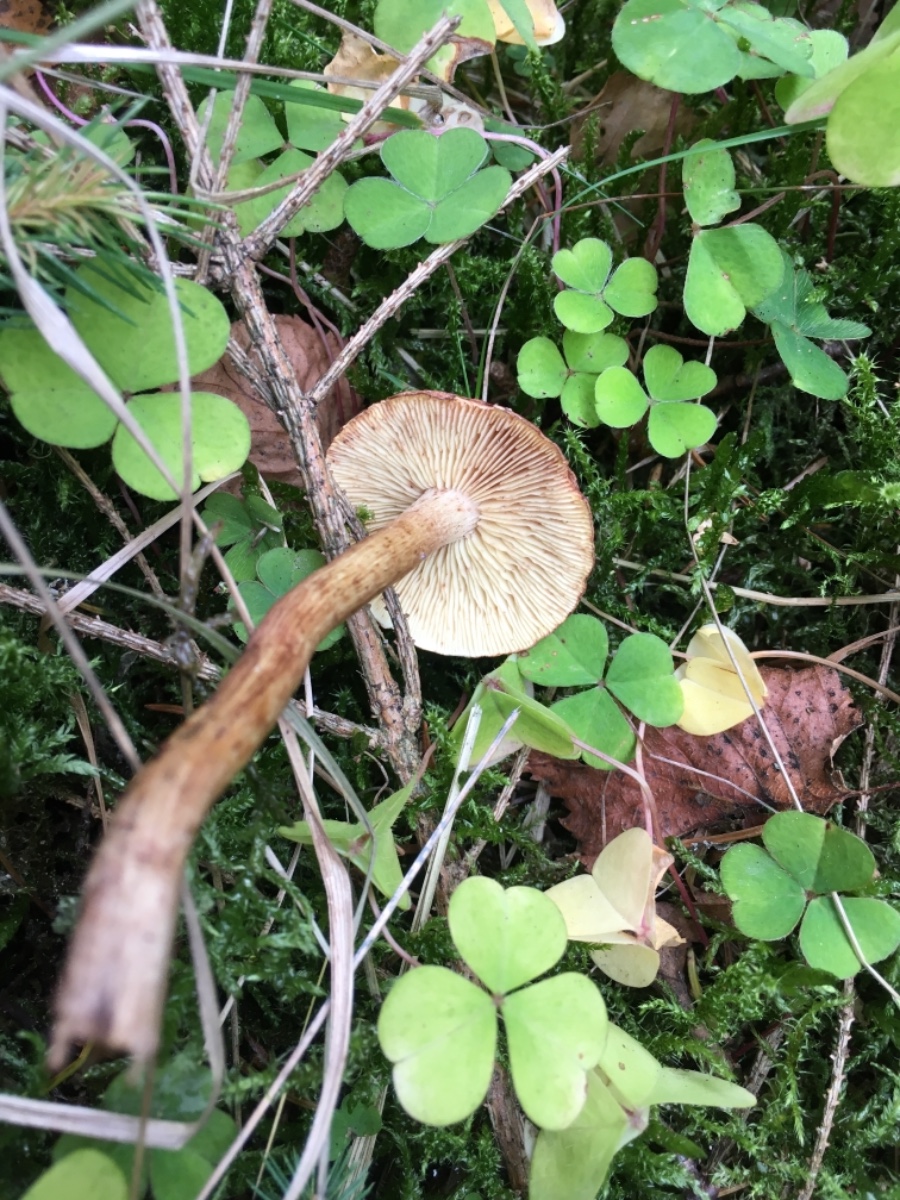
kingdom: Fungi
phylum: Basidiomycota
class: Agaricomycetes
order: Agaricales
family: Tricholomataceae
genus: Tricholoma
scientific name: Tricholoma fulvum
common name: birke-ridderhat
